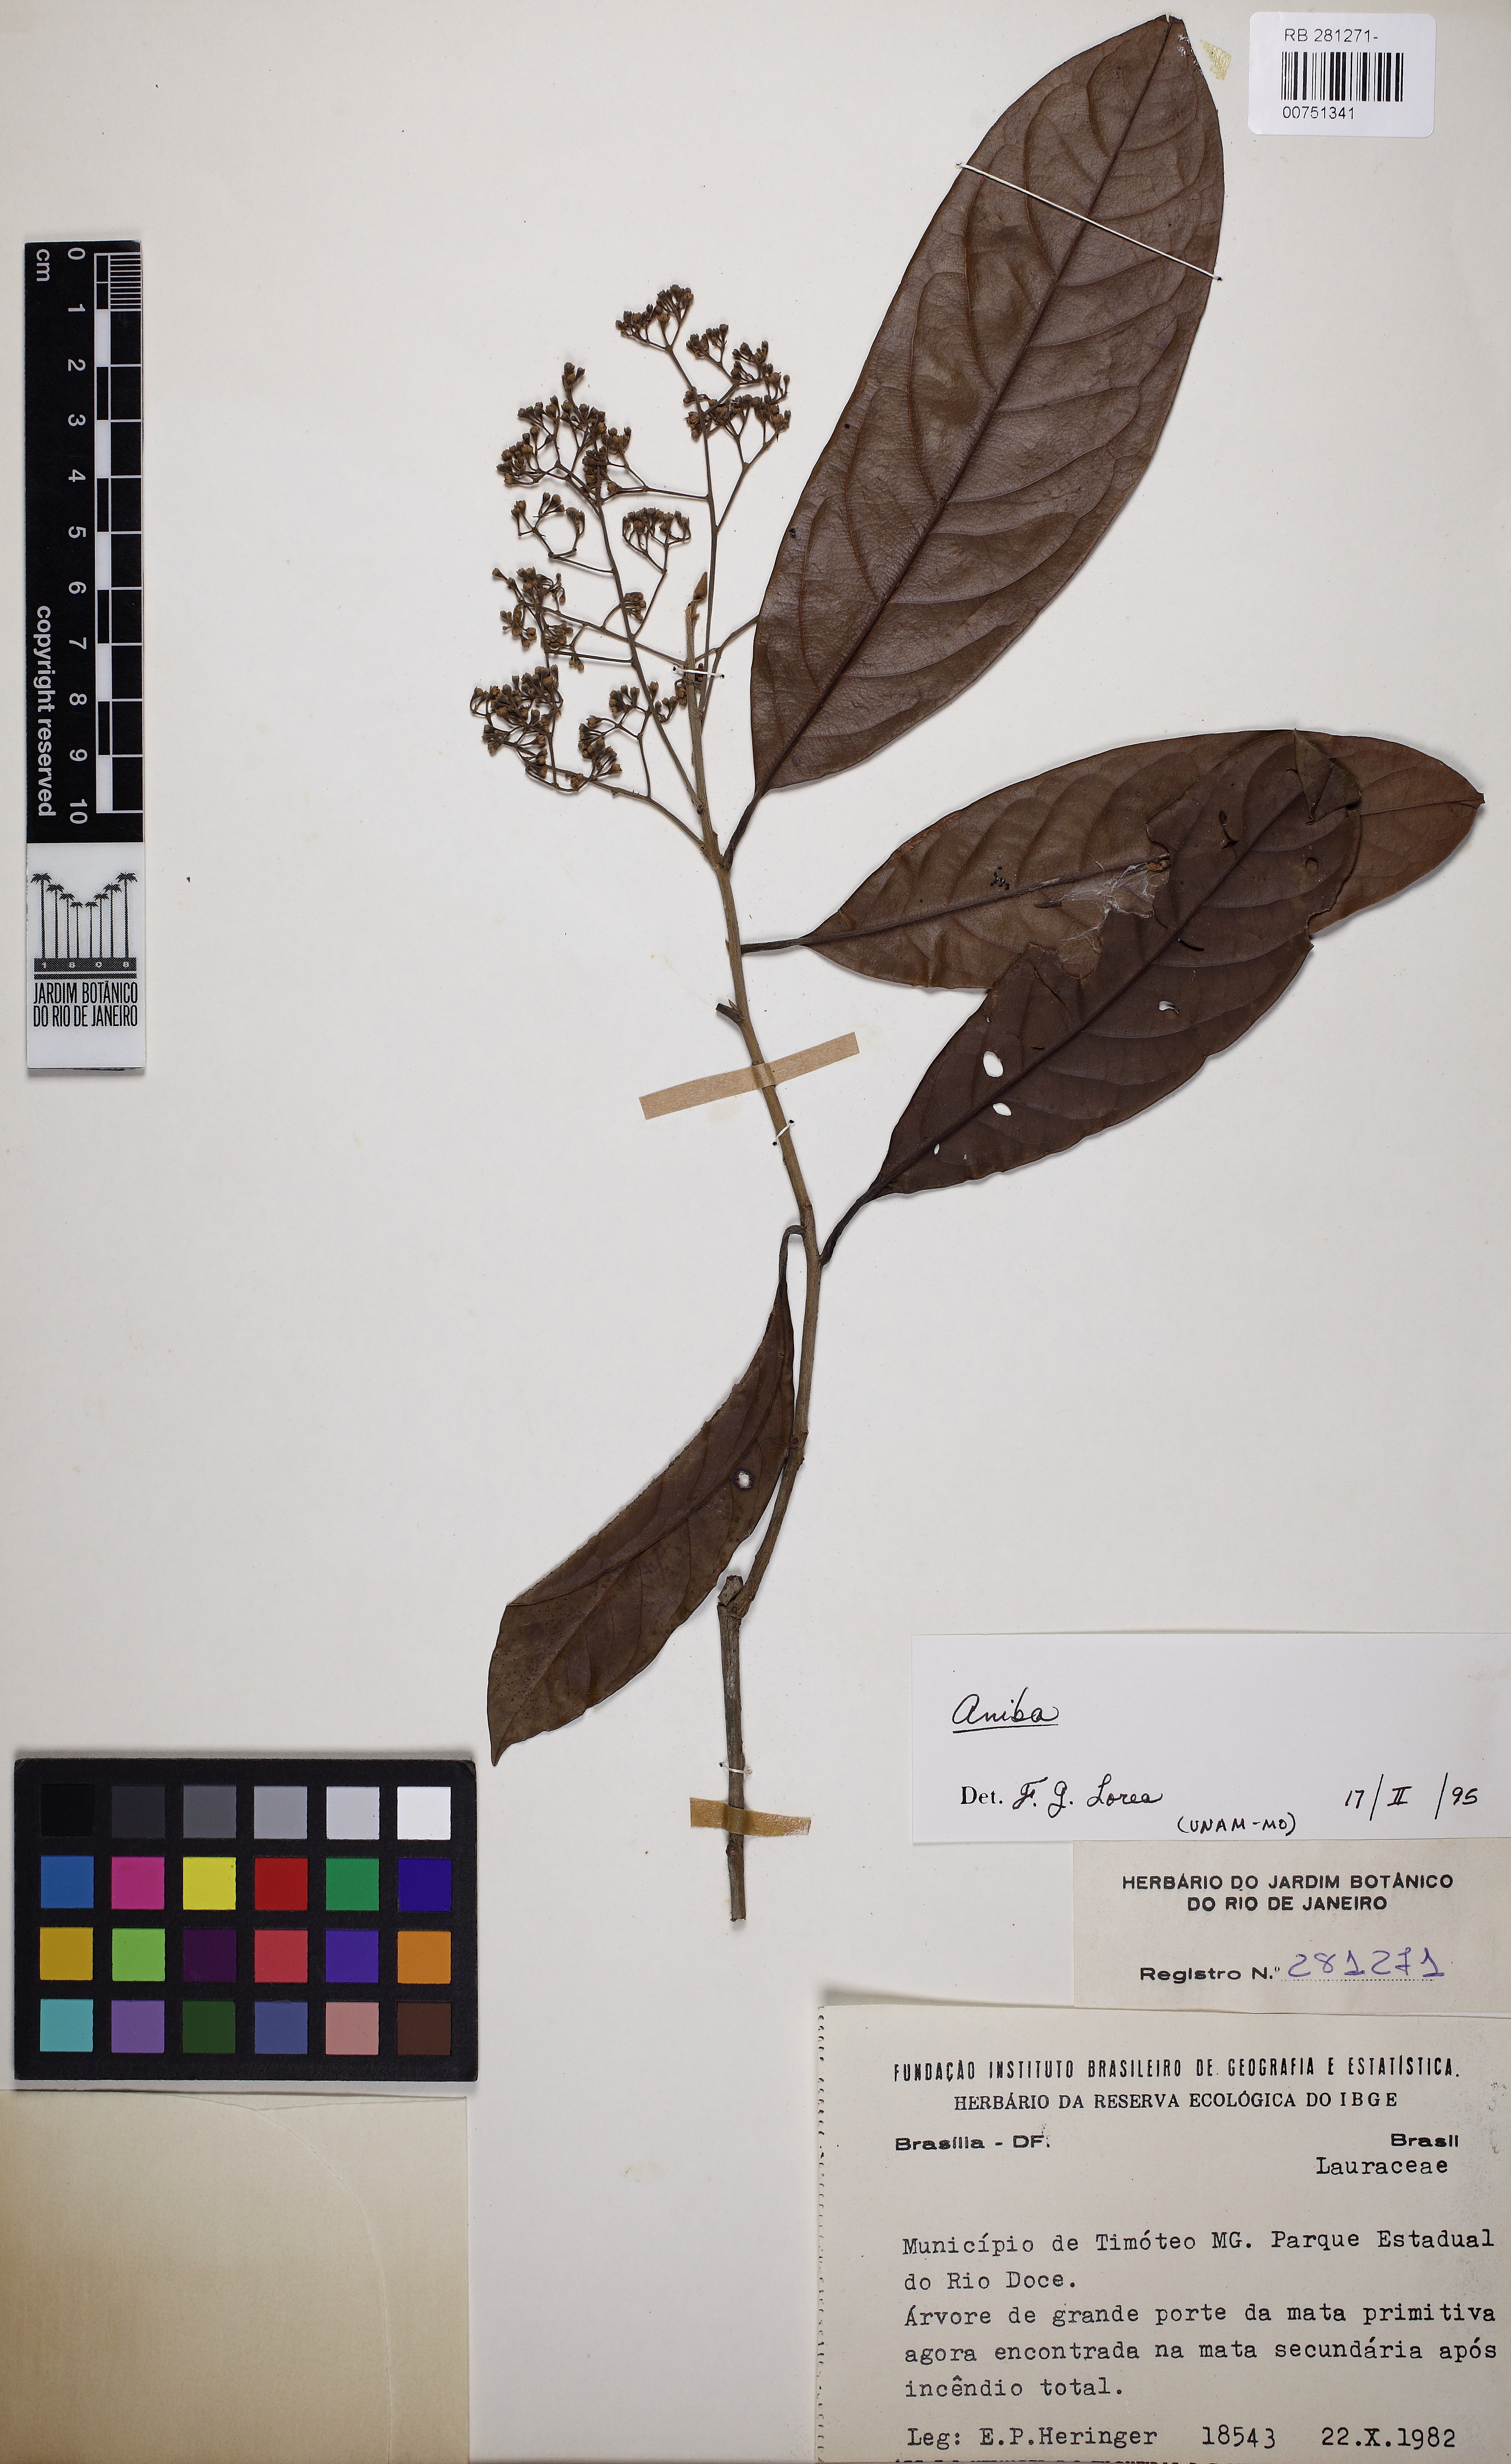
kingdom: Plantae
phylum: Tracheophyta
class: Magnoliopsida
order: Laurales
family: Lauraceae
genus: Aniba
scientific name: Aniba
